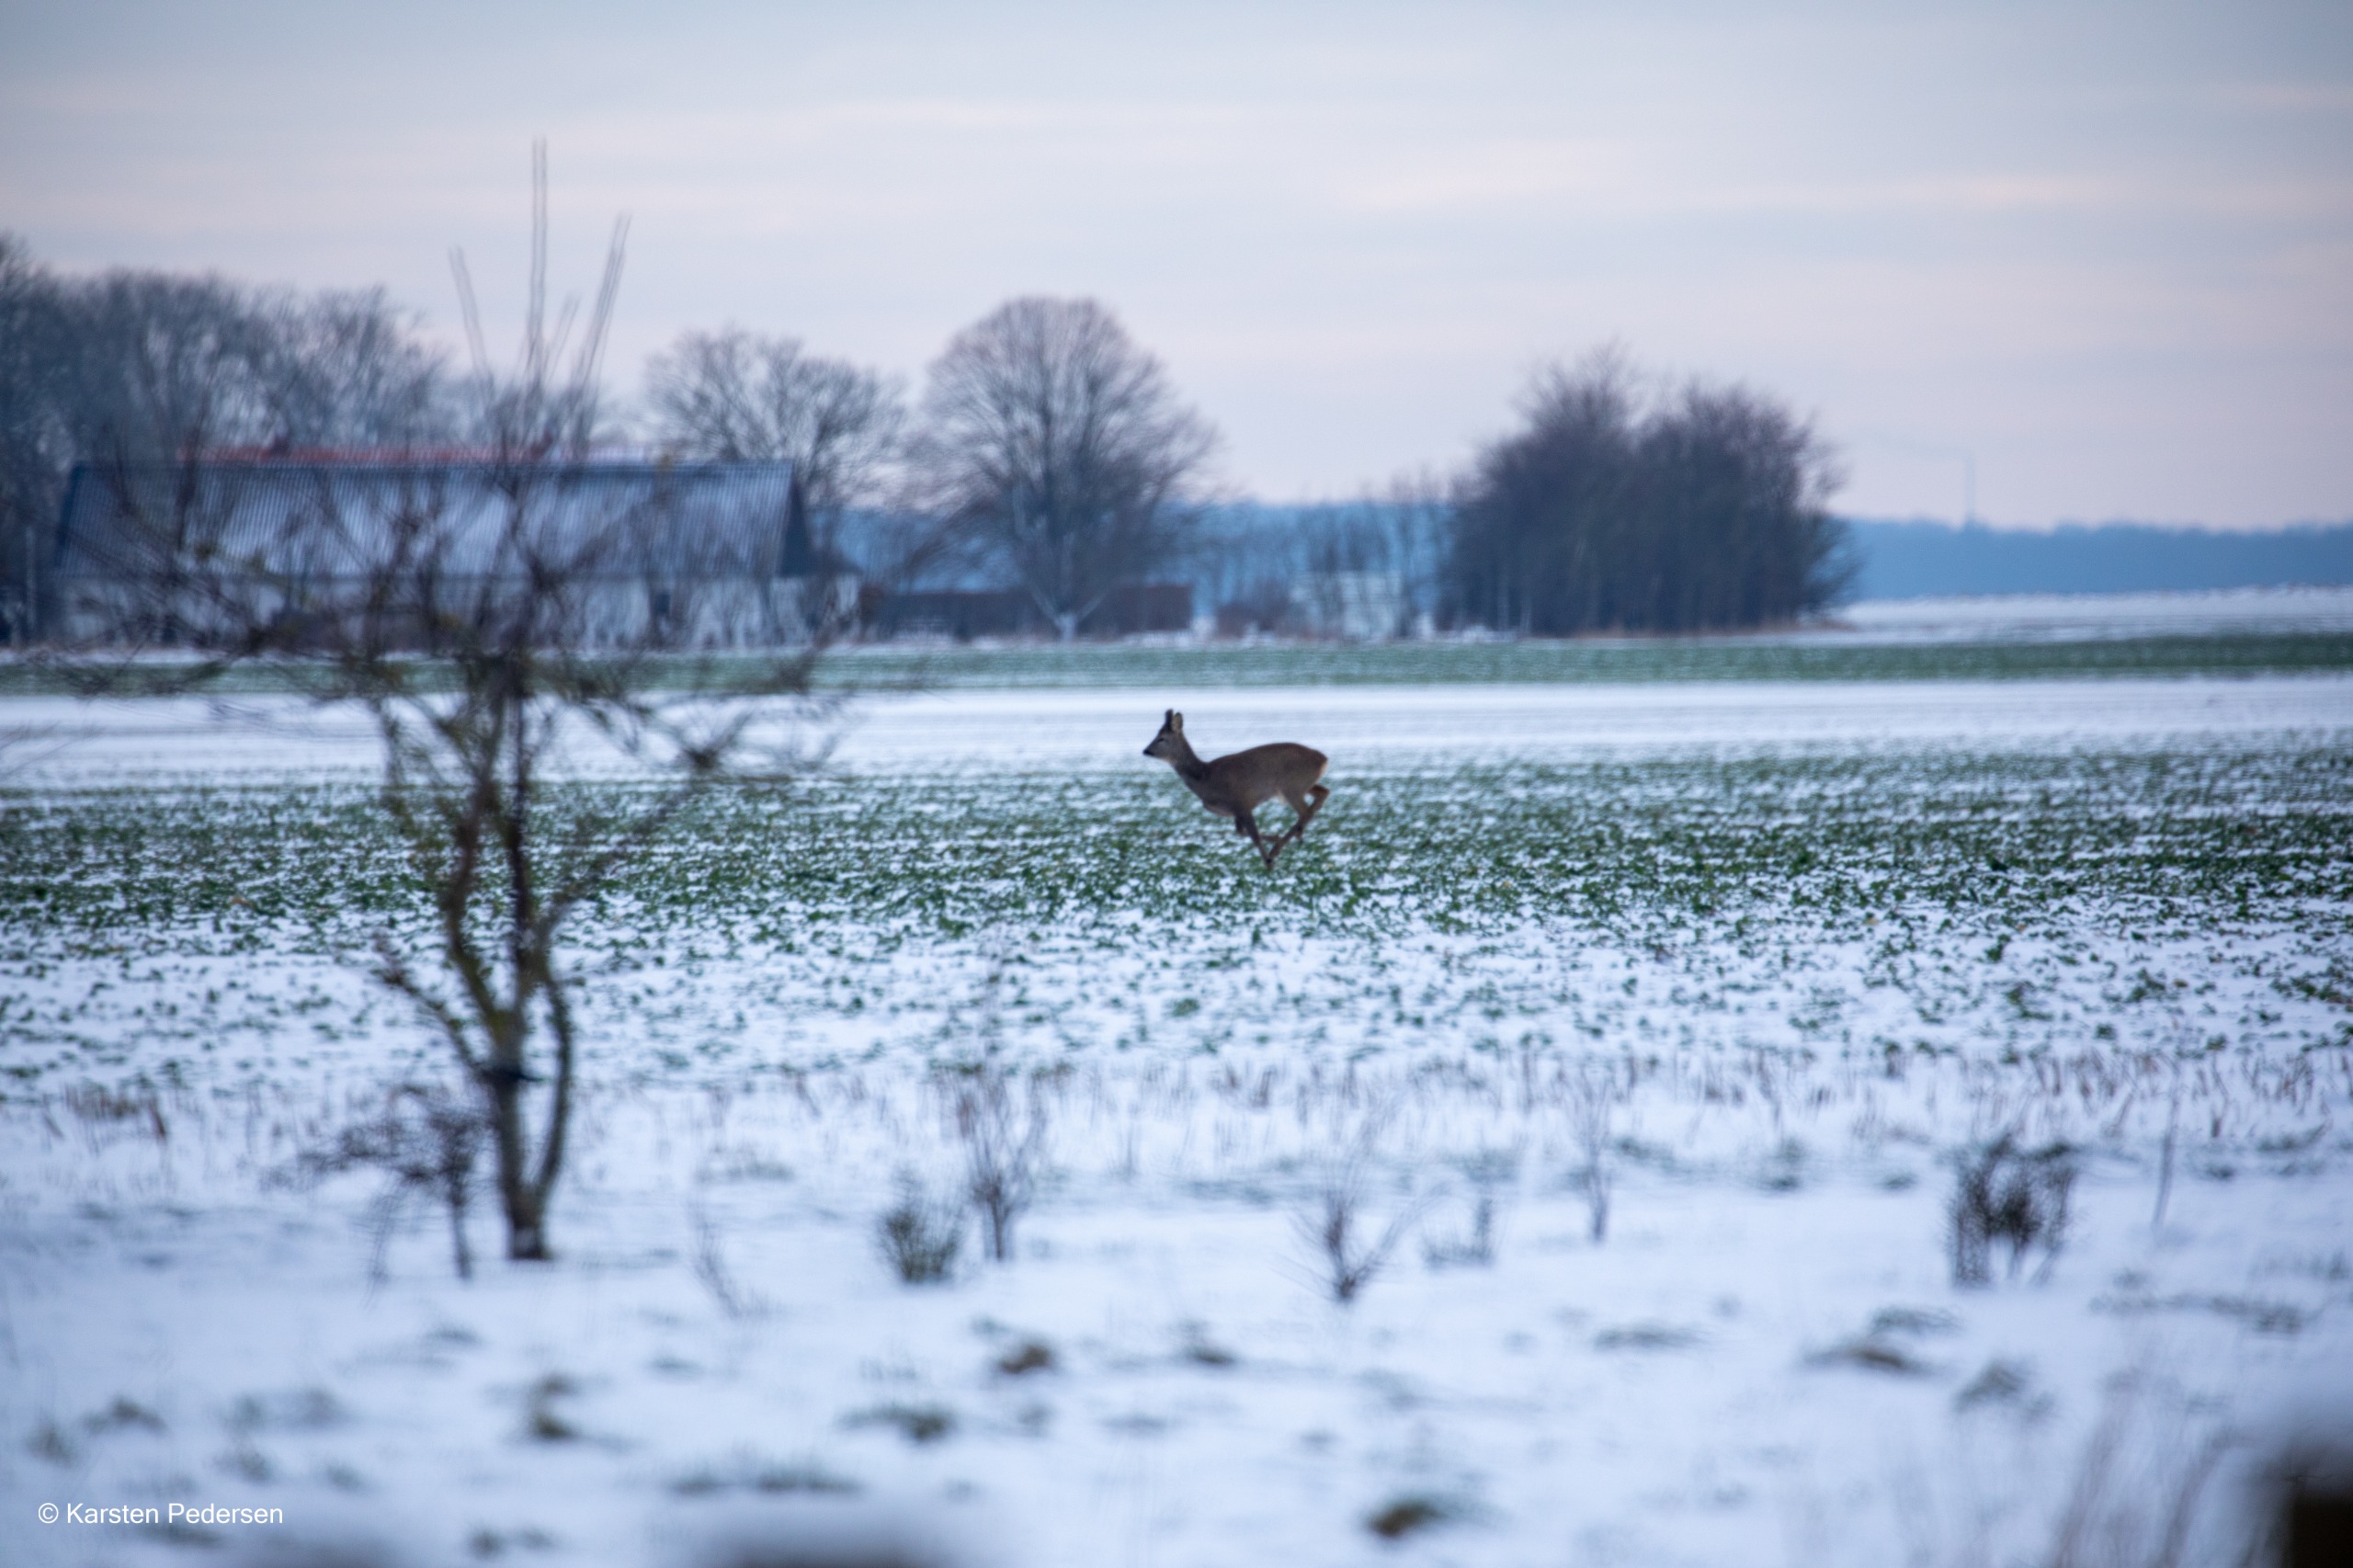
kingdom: Animalia
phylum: Chordata
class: Mammalia
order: Artiodactyla
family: Cervidae
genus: Capreolus
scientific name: Capreolus capreolus
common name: Rådyr
